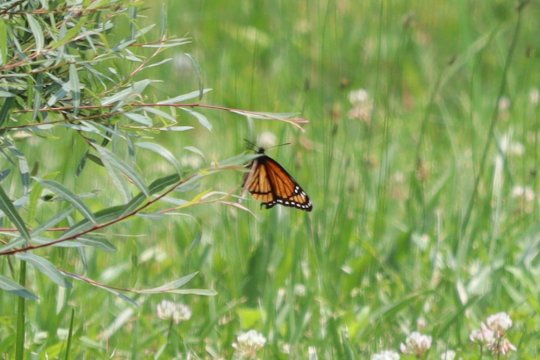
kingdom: Animalia
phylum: Arthropoda
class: Insecta
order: Lepidoptera
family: Nymphalidae
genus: Limenitis
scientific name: Limenitis archippus
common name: Viceroy
